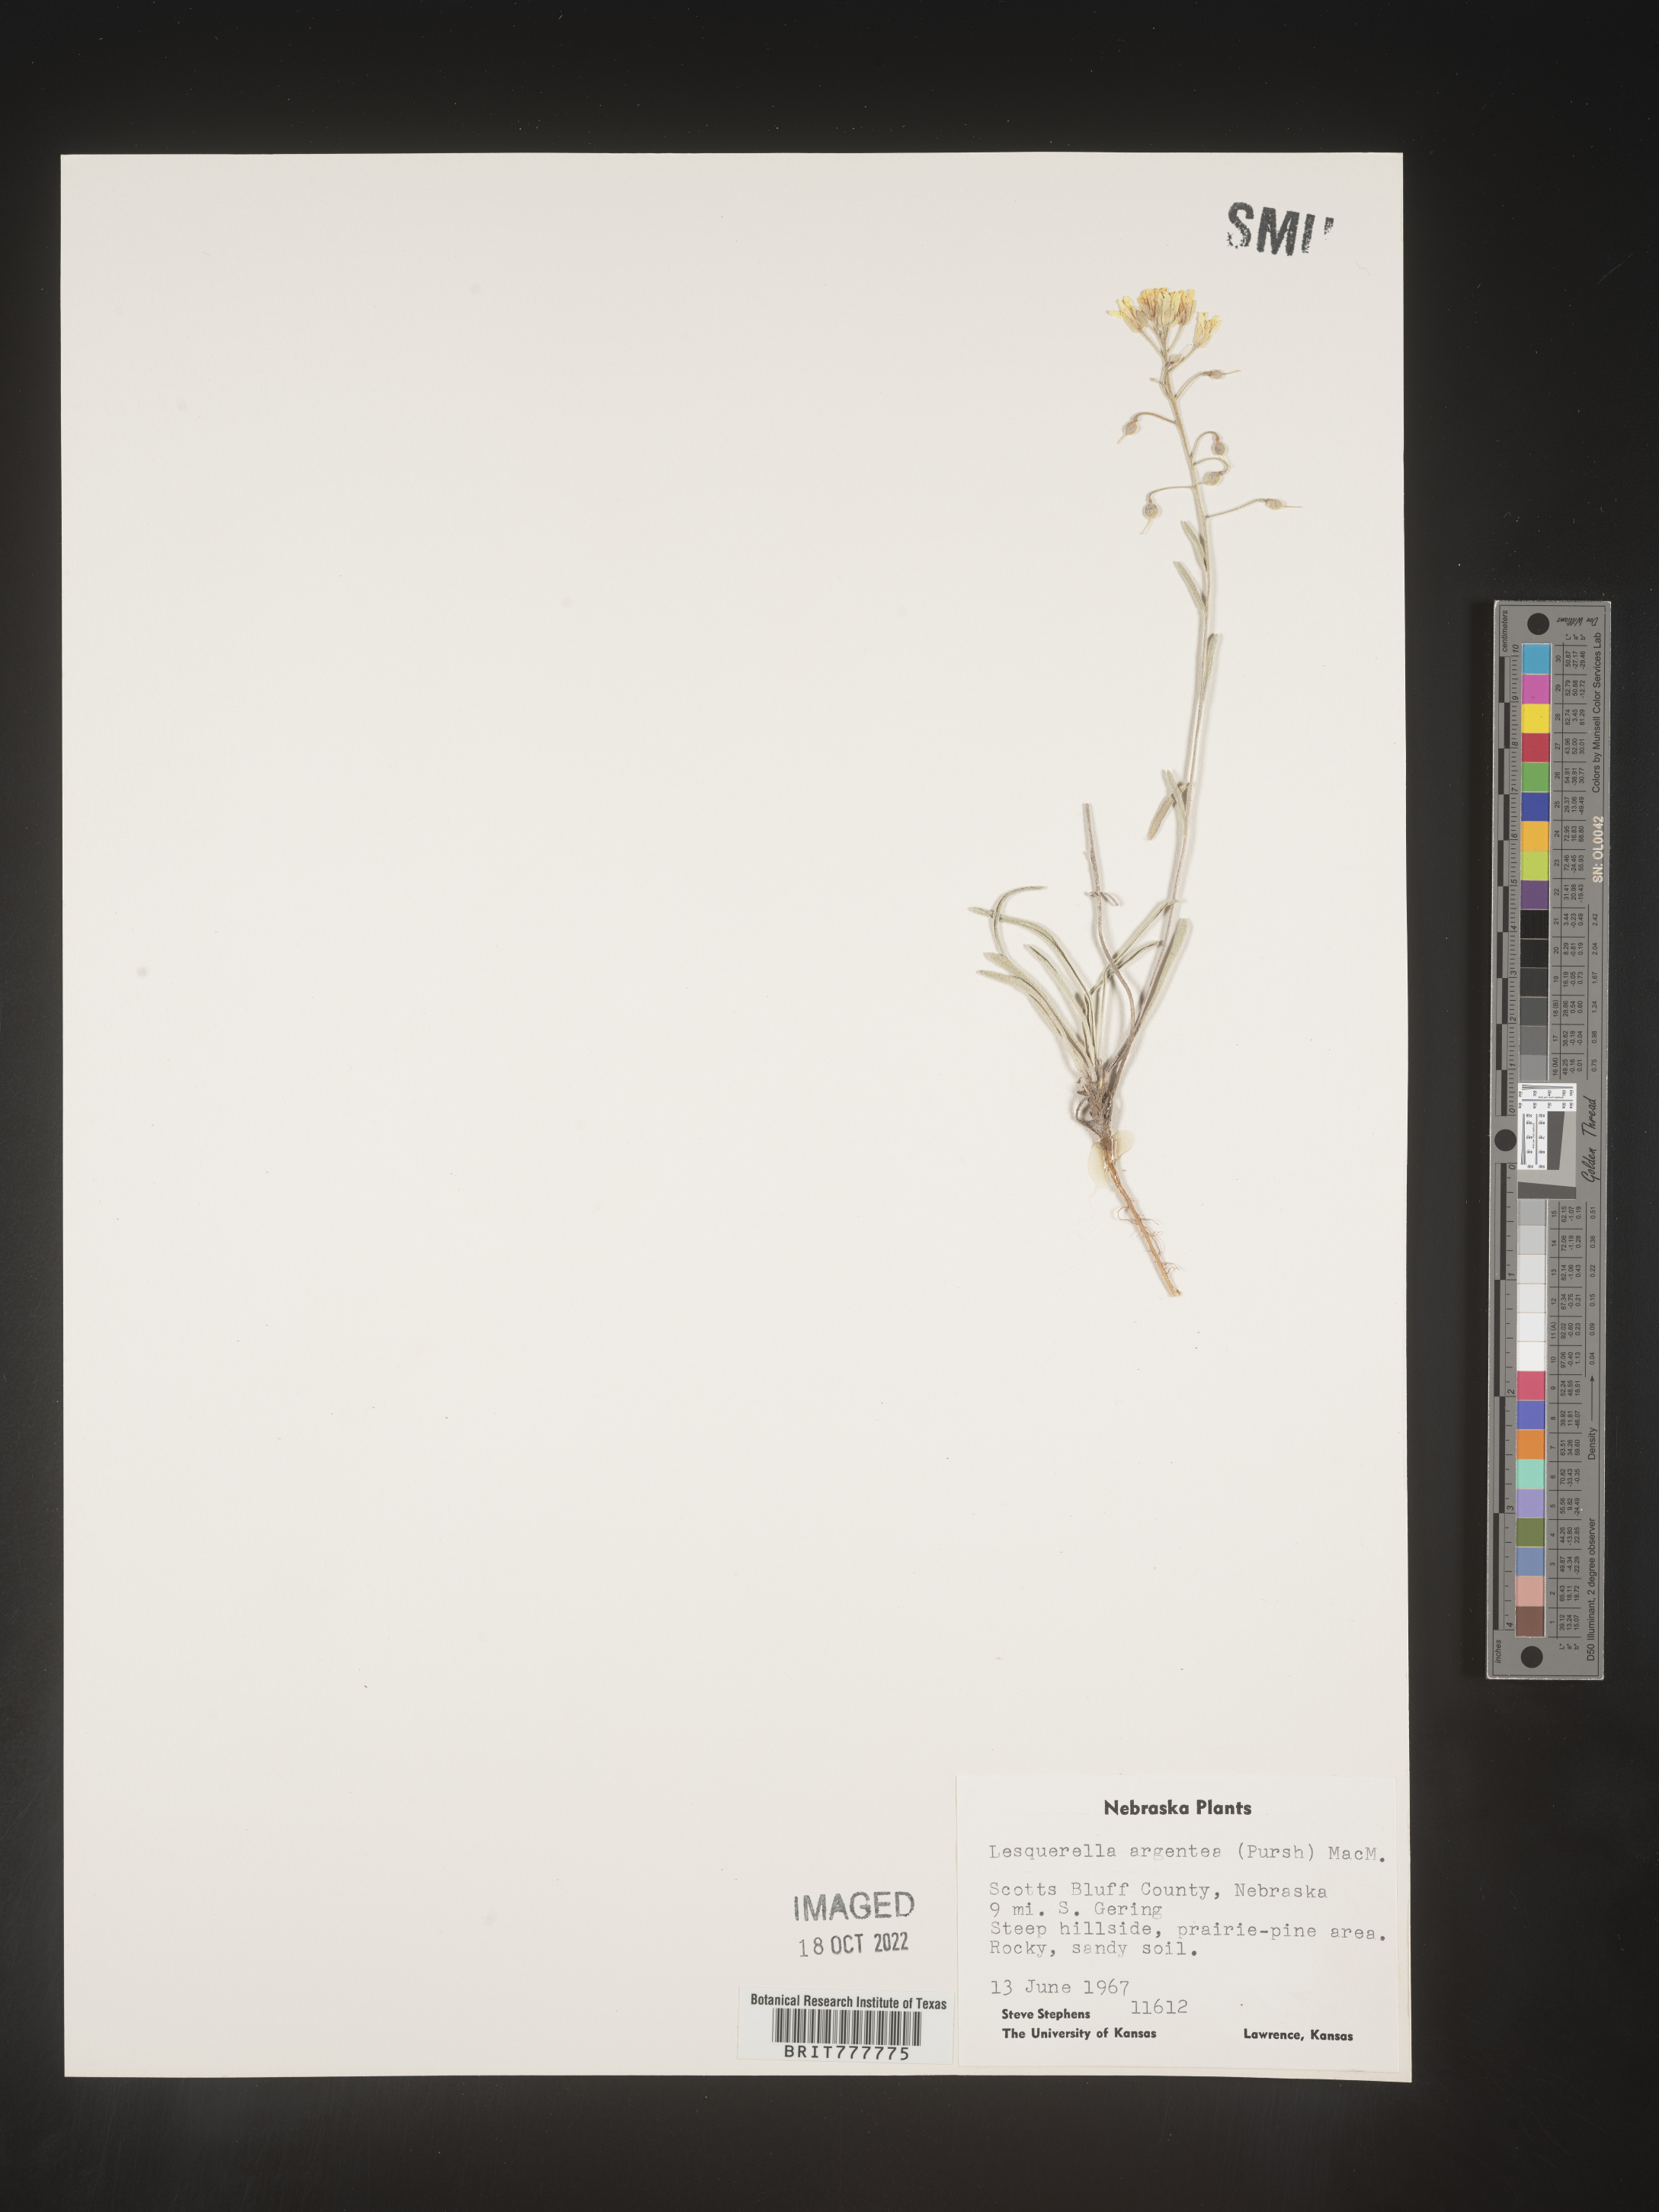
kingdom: Chromista
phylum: Cercozoa
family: Psammonobiotidae
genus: Lesquerella
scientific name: Lesquerella
